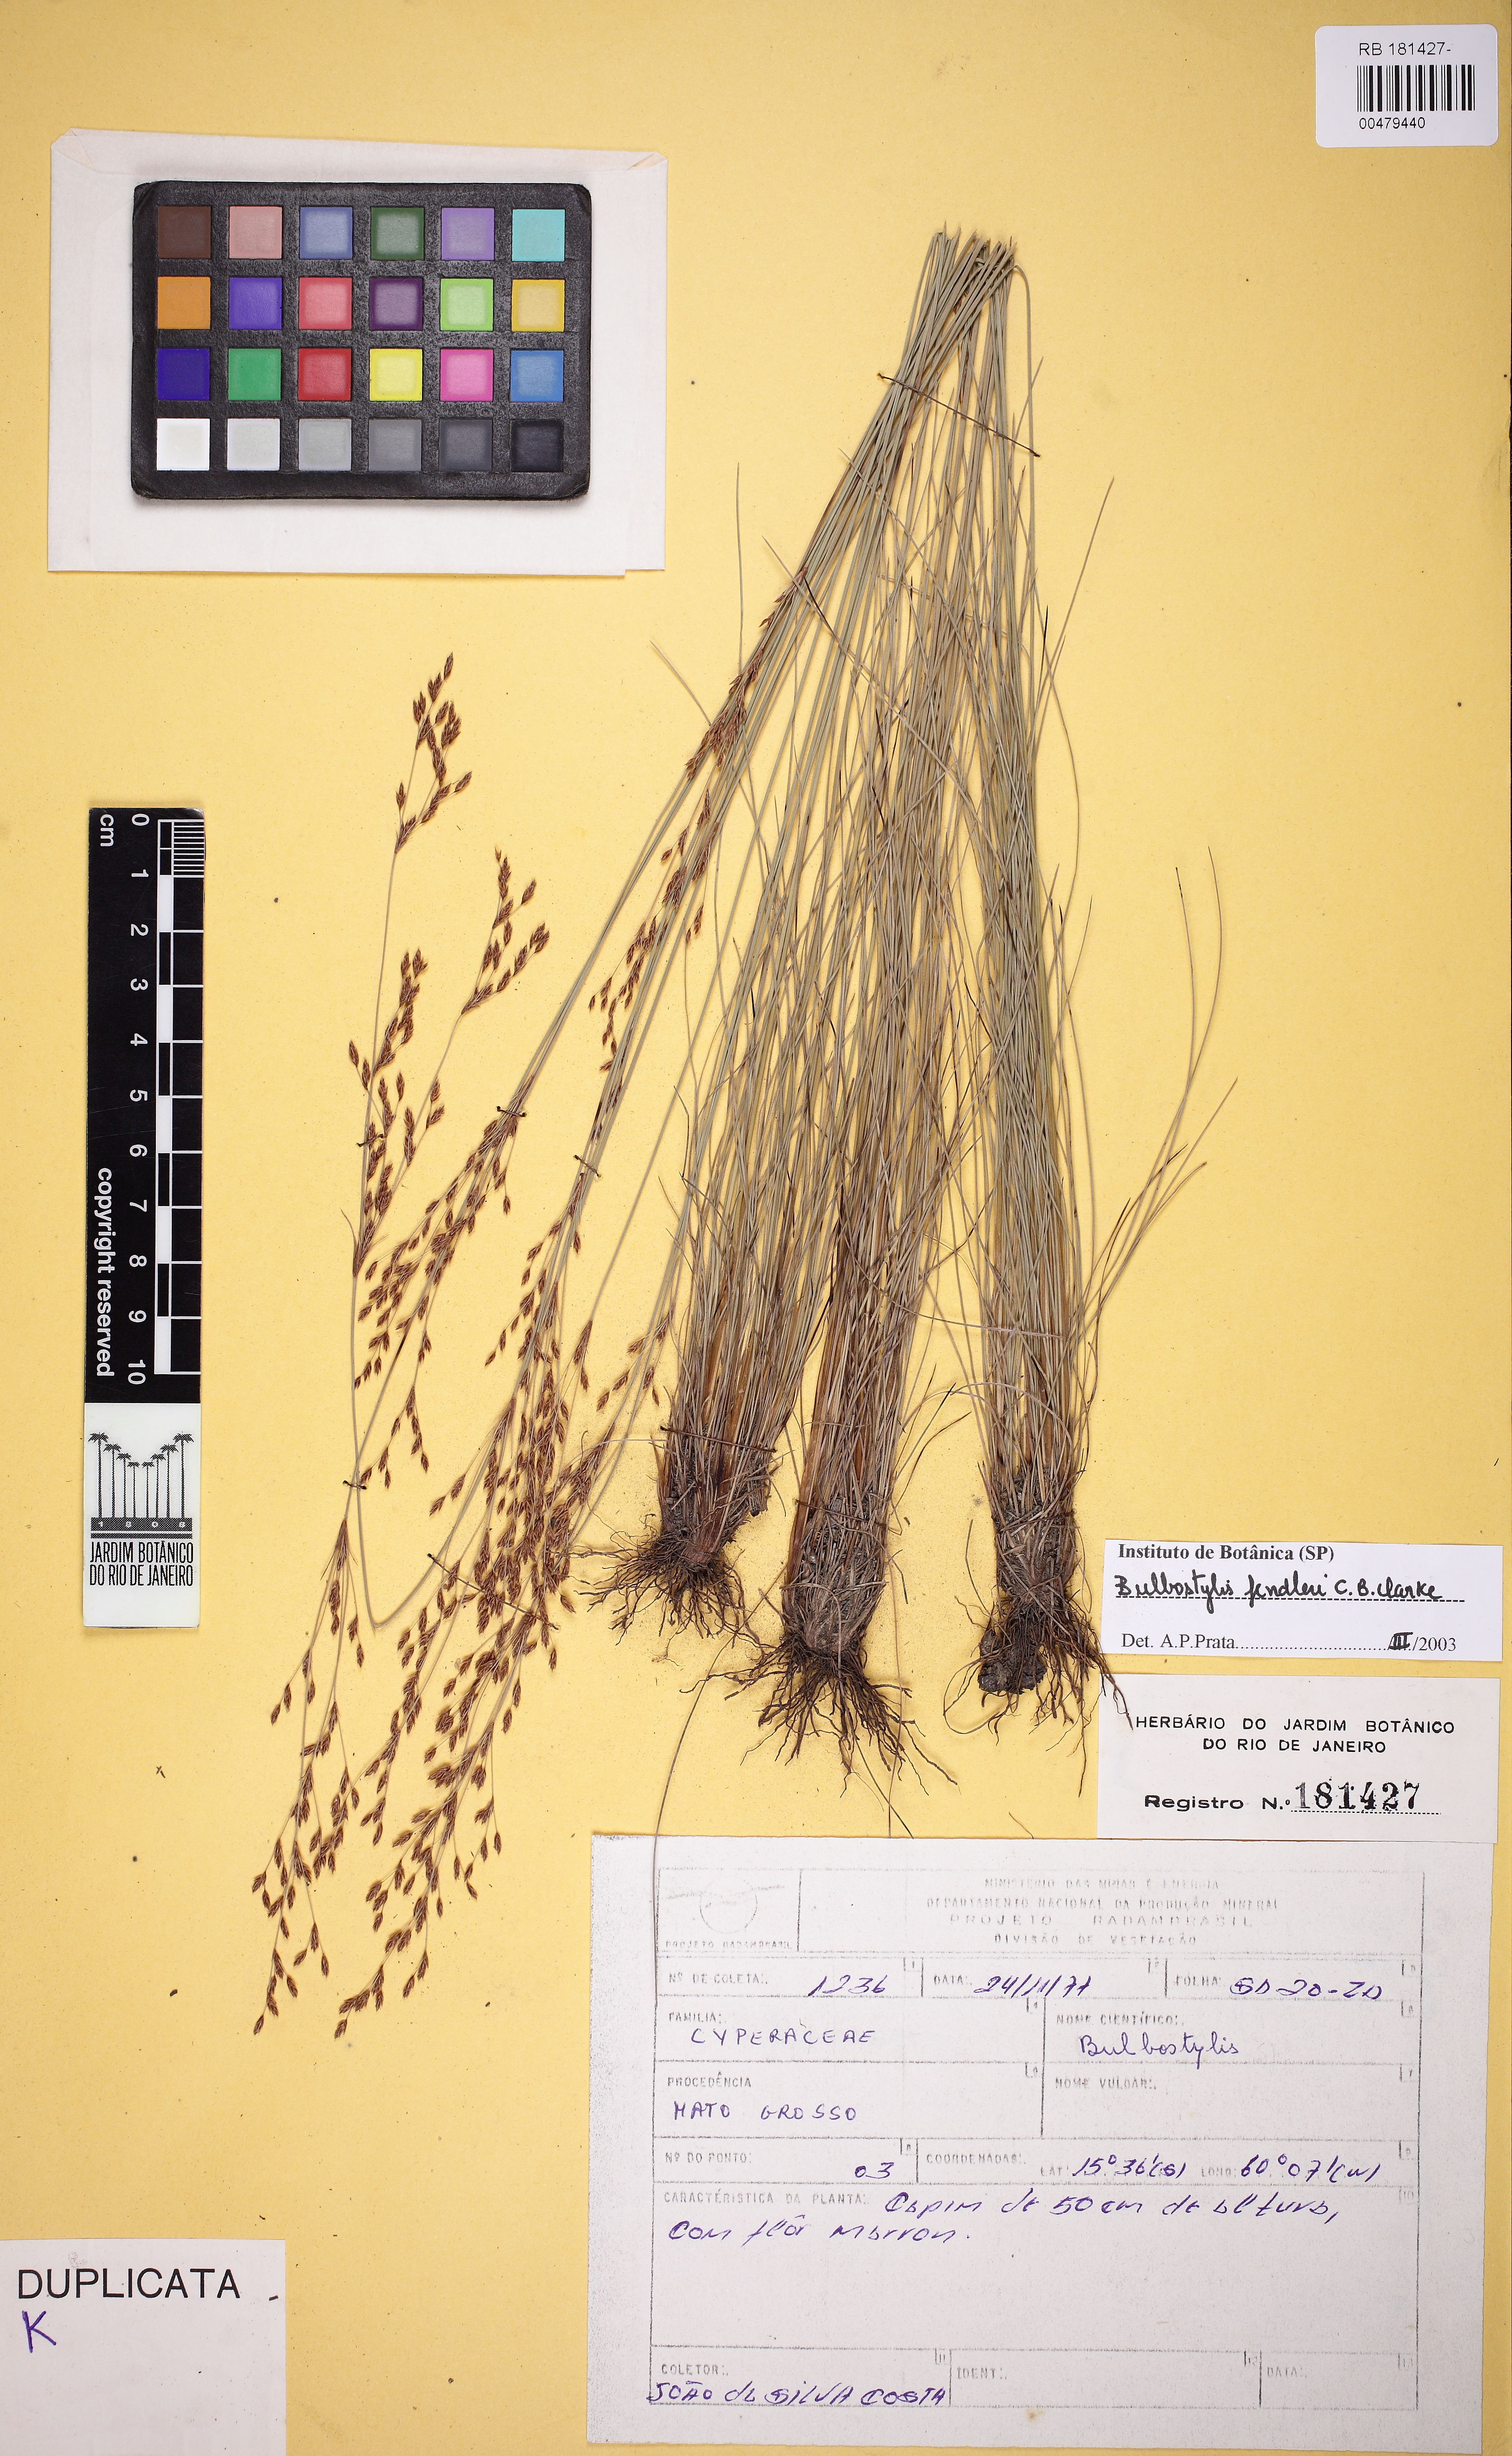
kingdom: Plantae
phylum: Tracheophyta
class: Liliopsida
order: Poales
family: Cyperaceae
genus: Bulbostylis
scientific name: Bulbostylis juncoides
